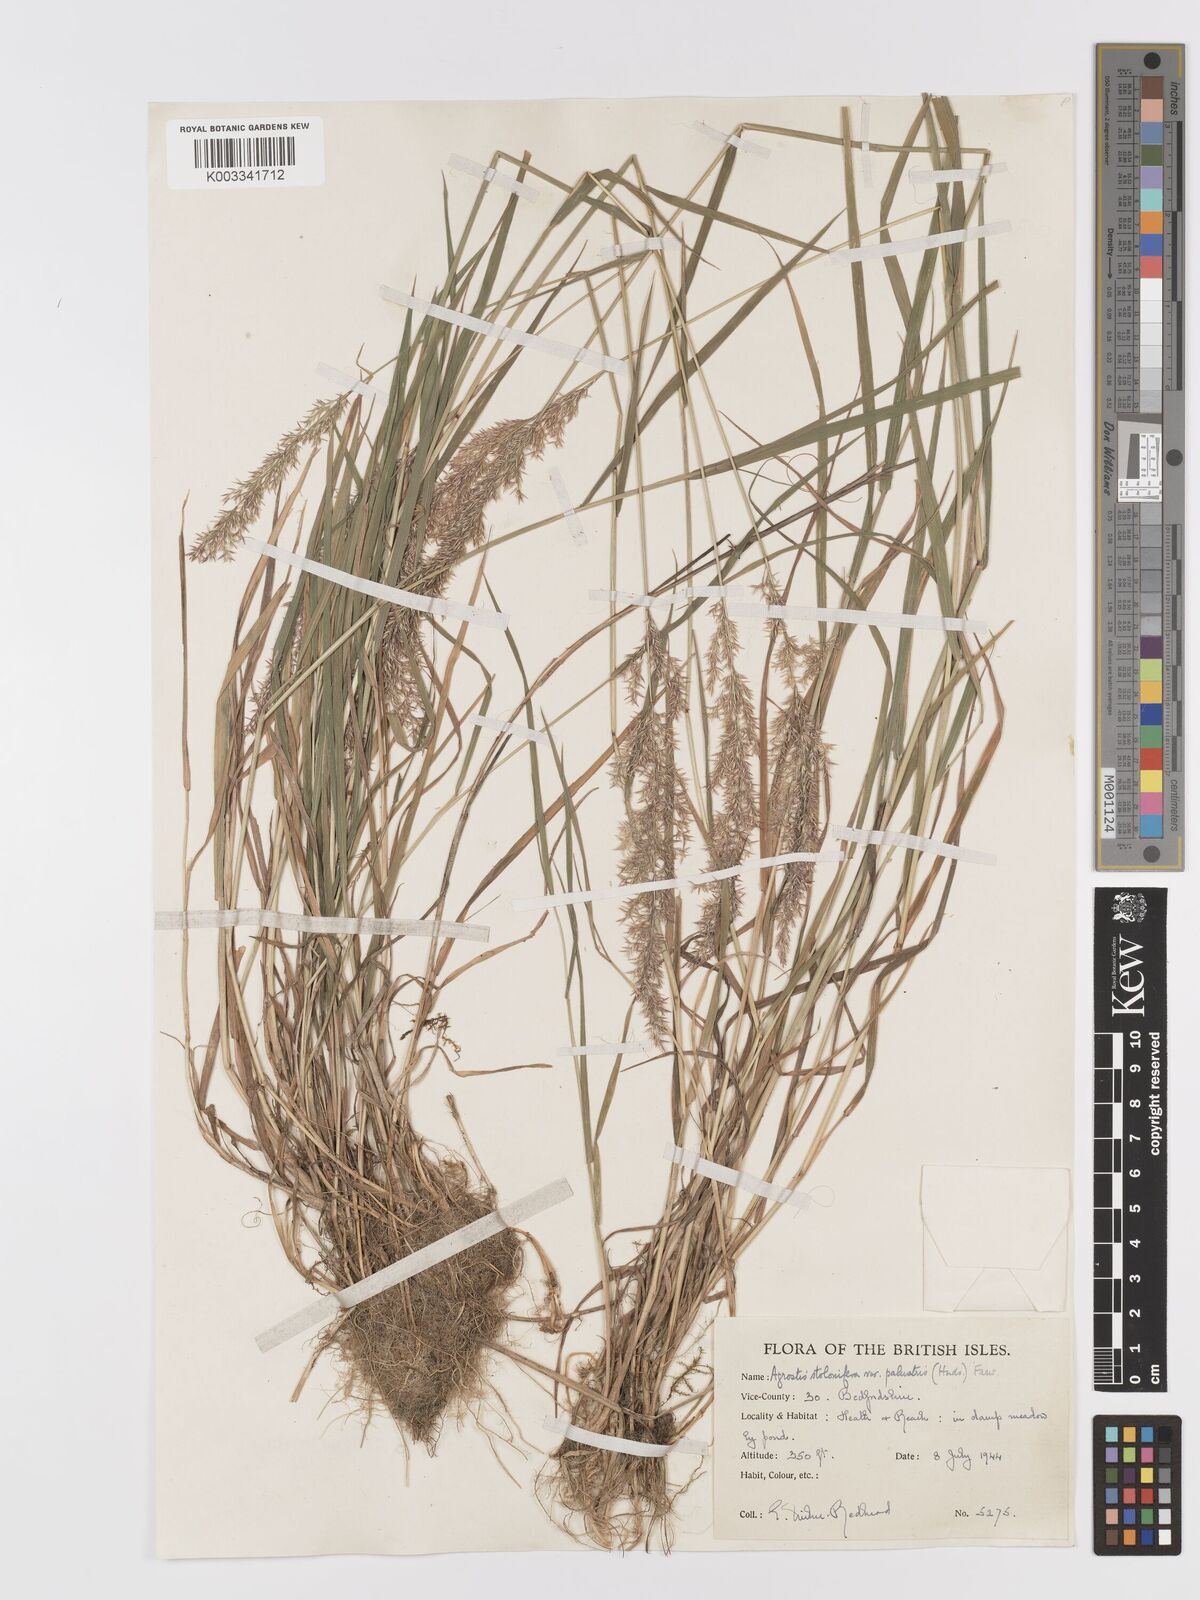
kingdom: Plantae
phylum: Tracheophyta
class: Liliopsida
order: Poales
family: Poaceae
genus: Agrostis
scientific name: Agrostis stolonifera
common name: Creeping bentgrass
